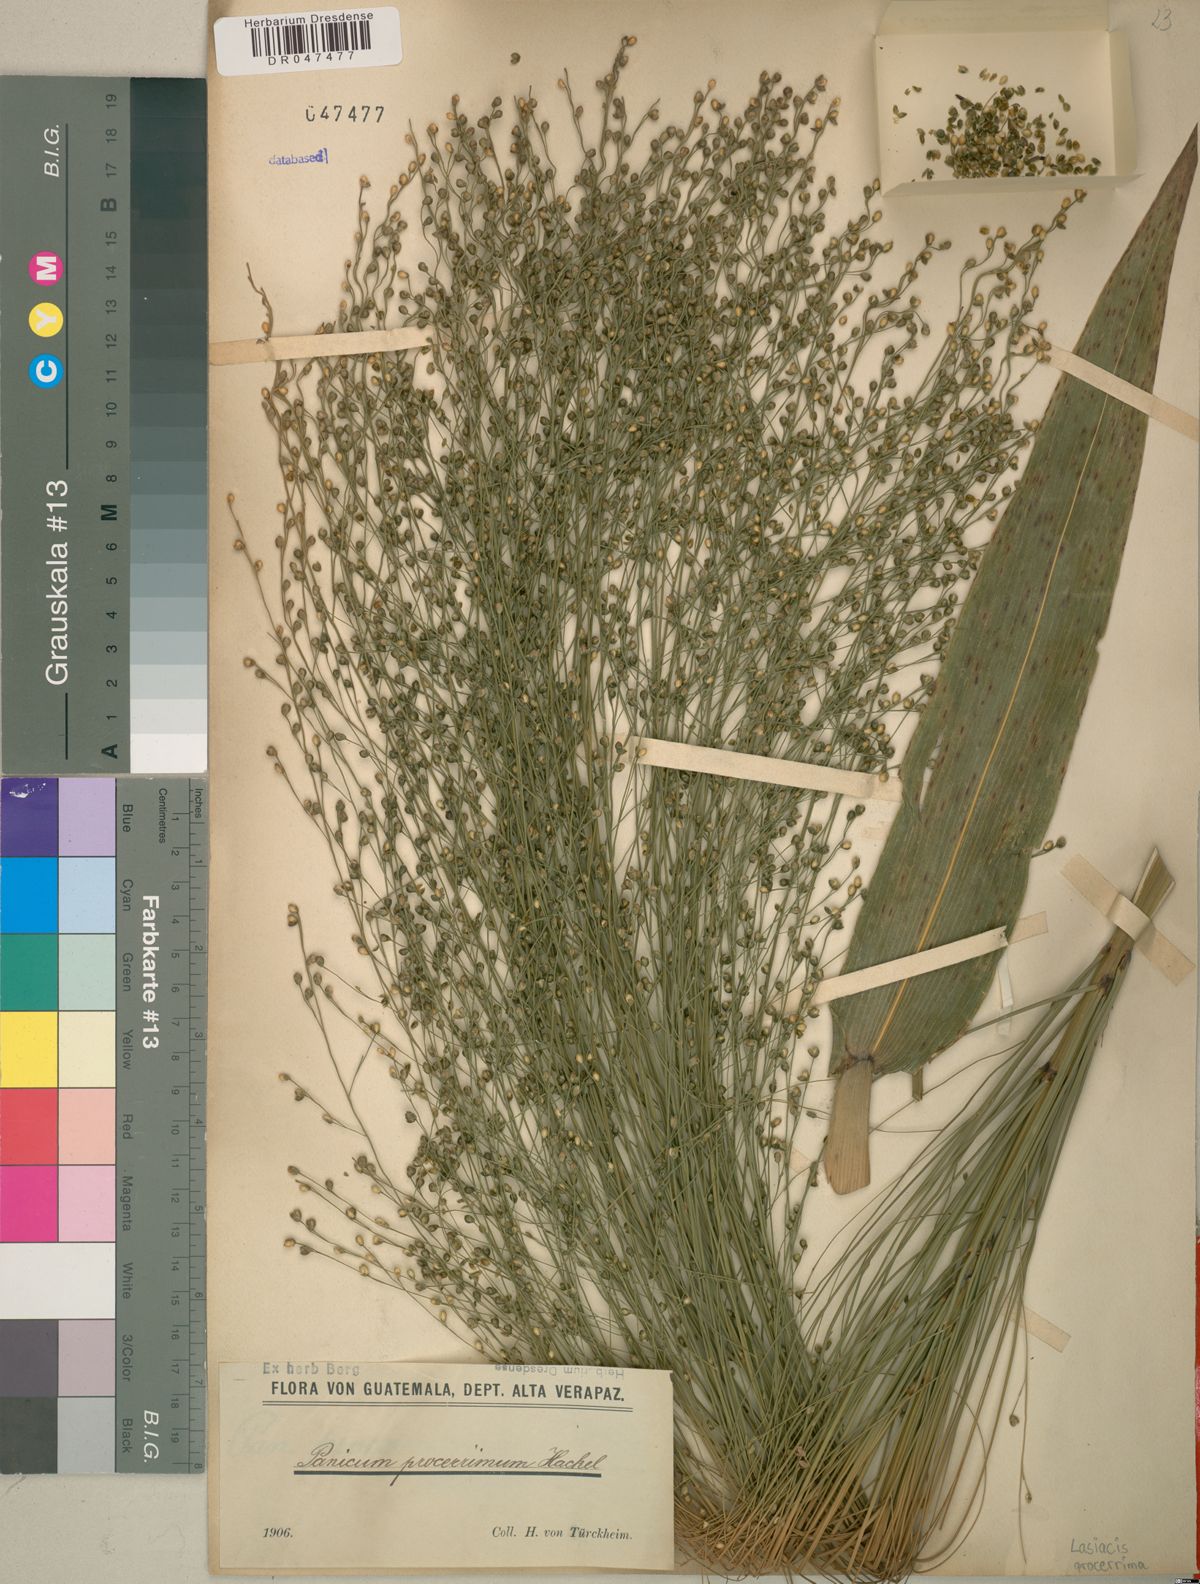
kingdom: Plantae
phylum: Tracheophyta
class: Liliopsida
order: Poales
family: Poaceae
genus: Lasiacis
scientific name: Lasiacis procerrima
